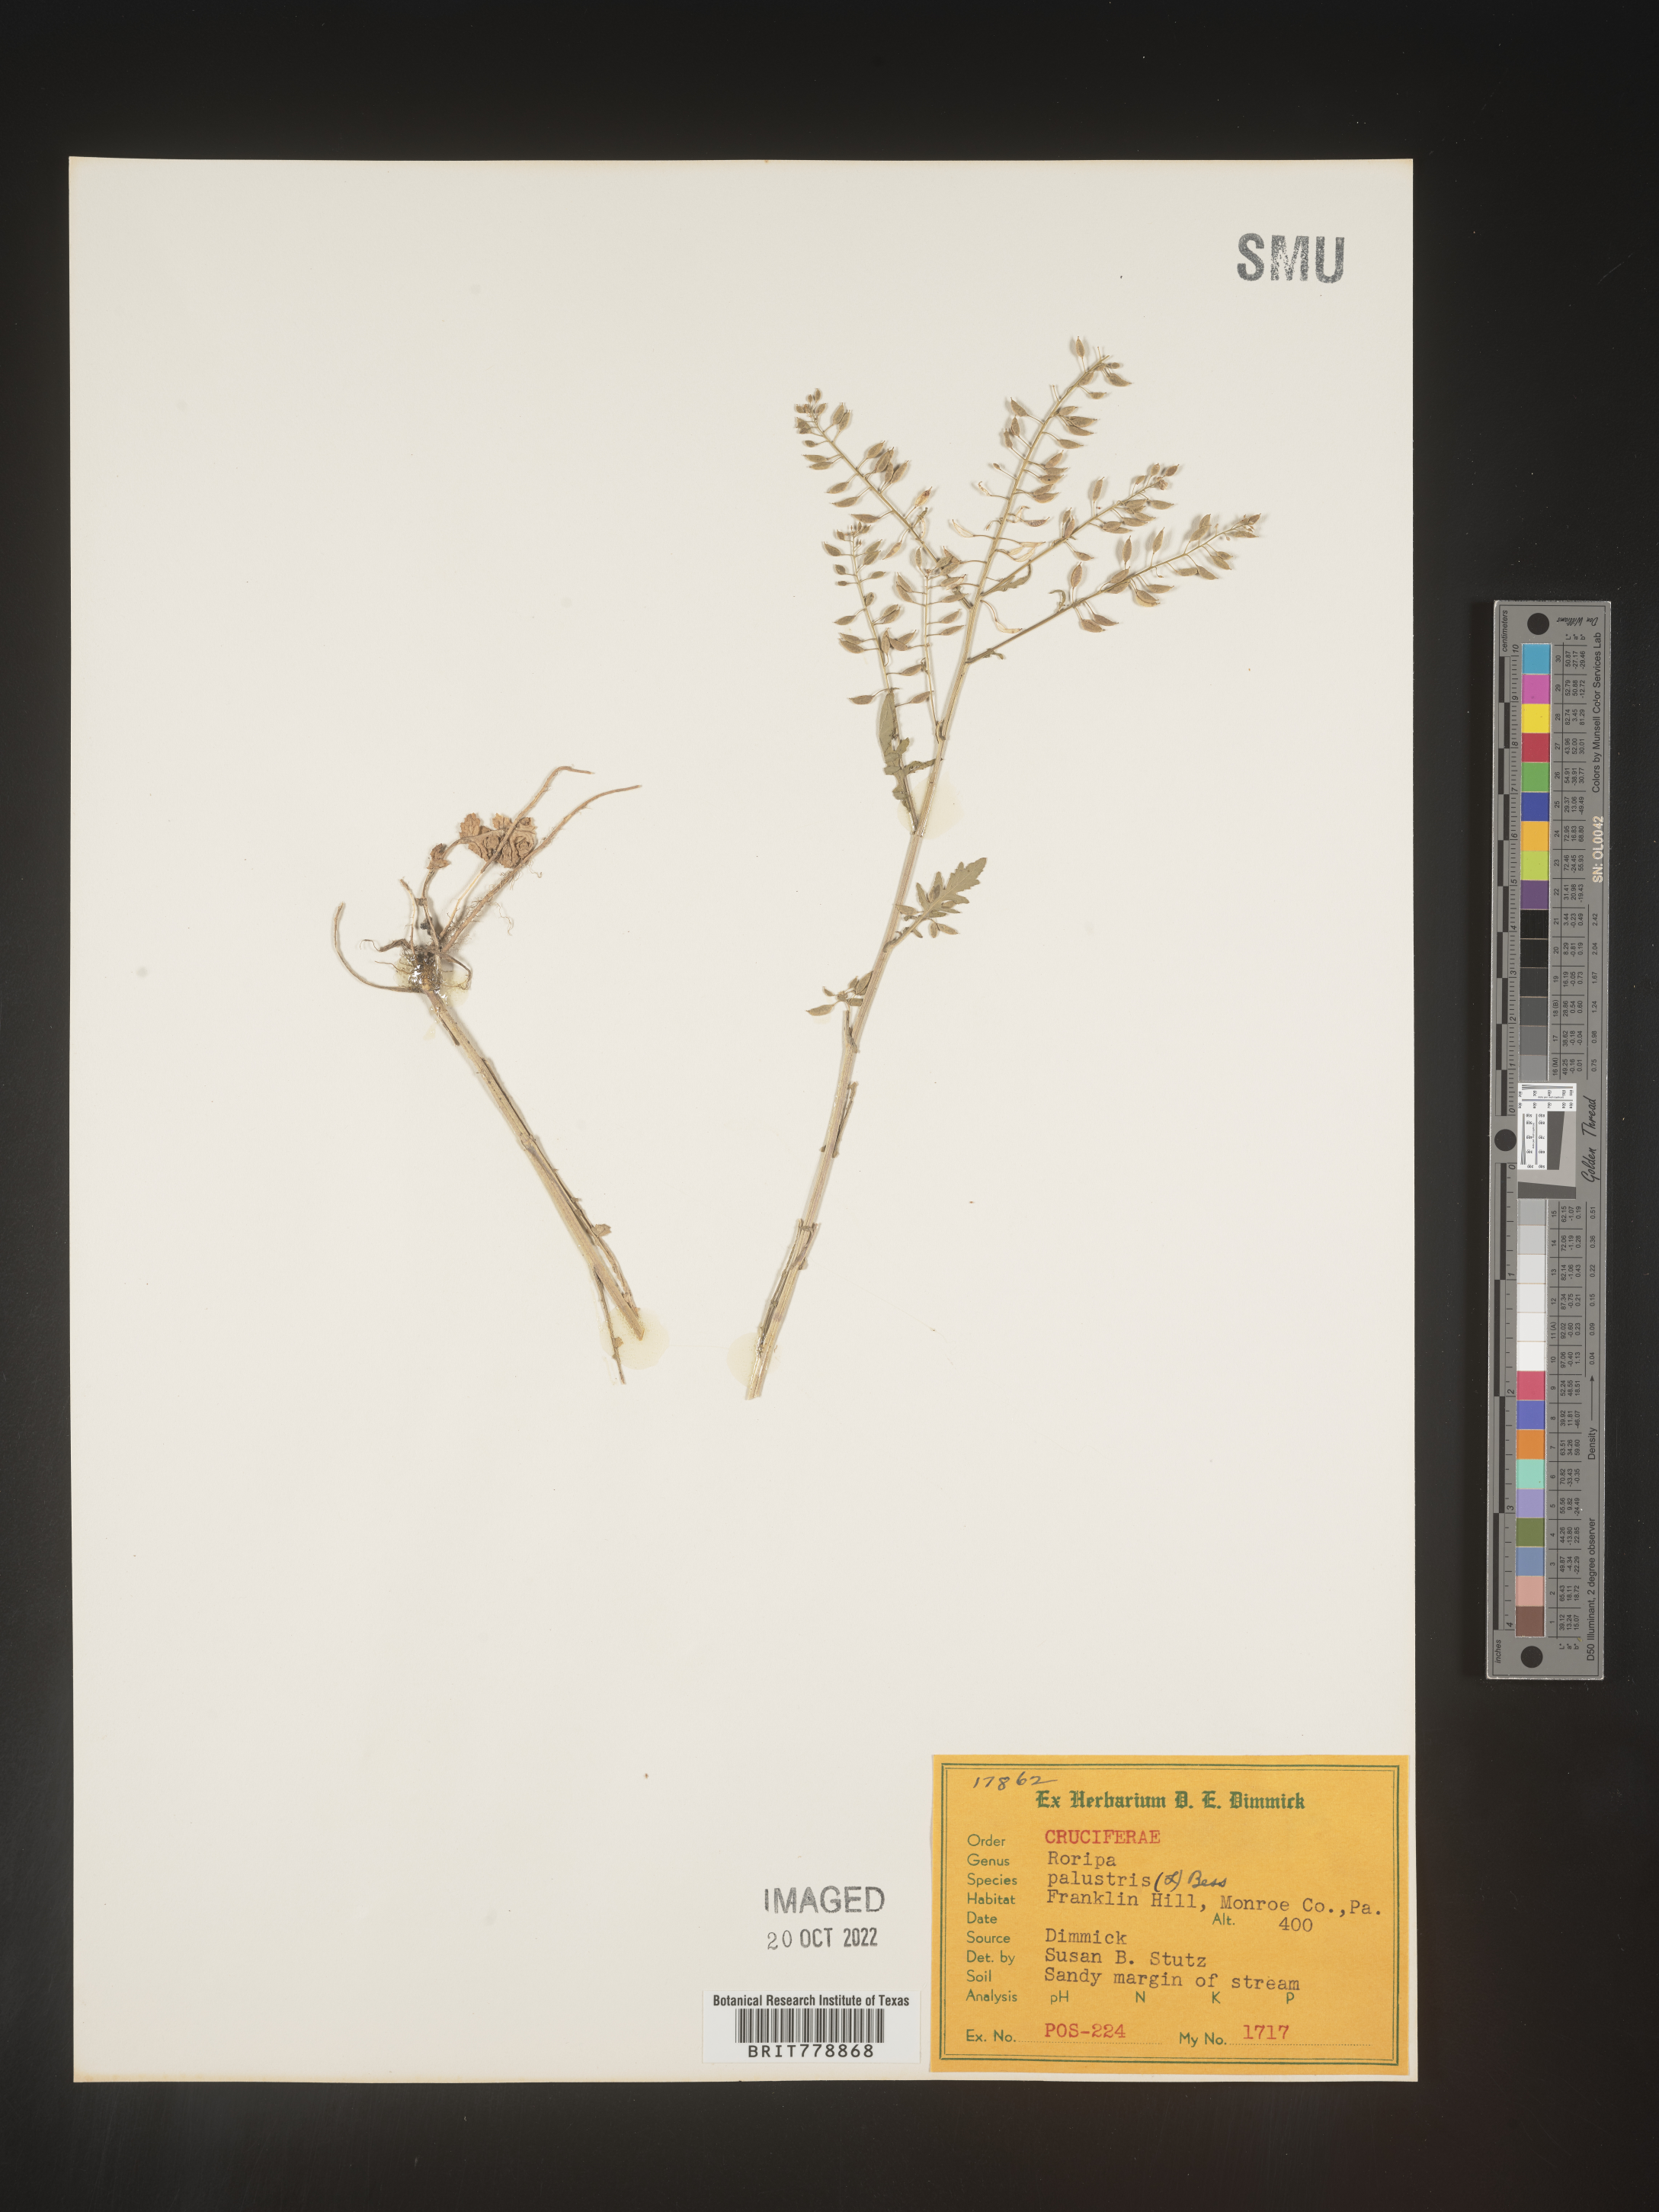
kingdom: Plantae
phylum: Tracheophyta
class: Magnoliopsida
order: Brassicales
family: Brassicaceae
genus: Rorippa
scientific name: Rorippa palustris
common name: Marsh yellow-cress
